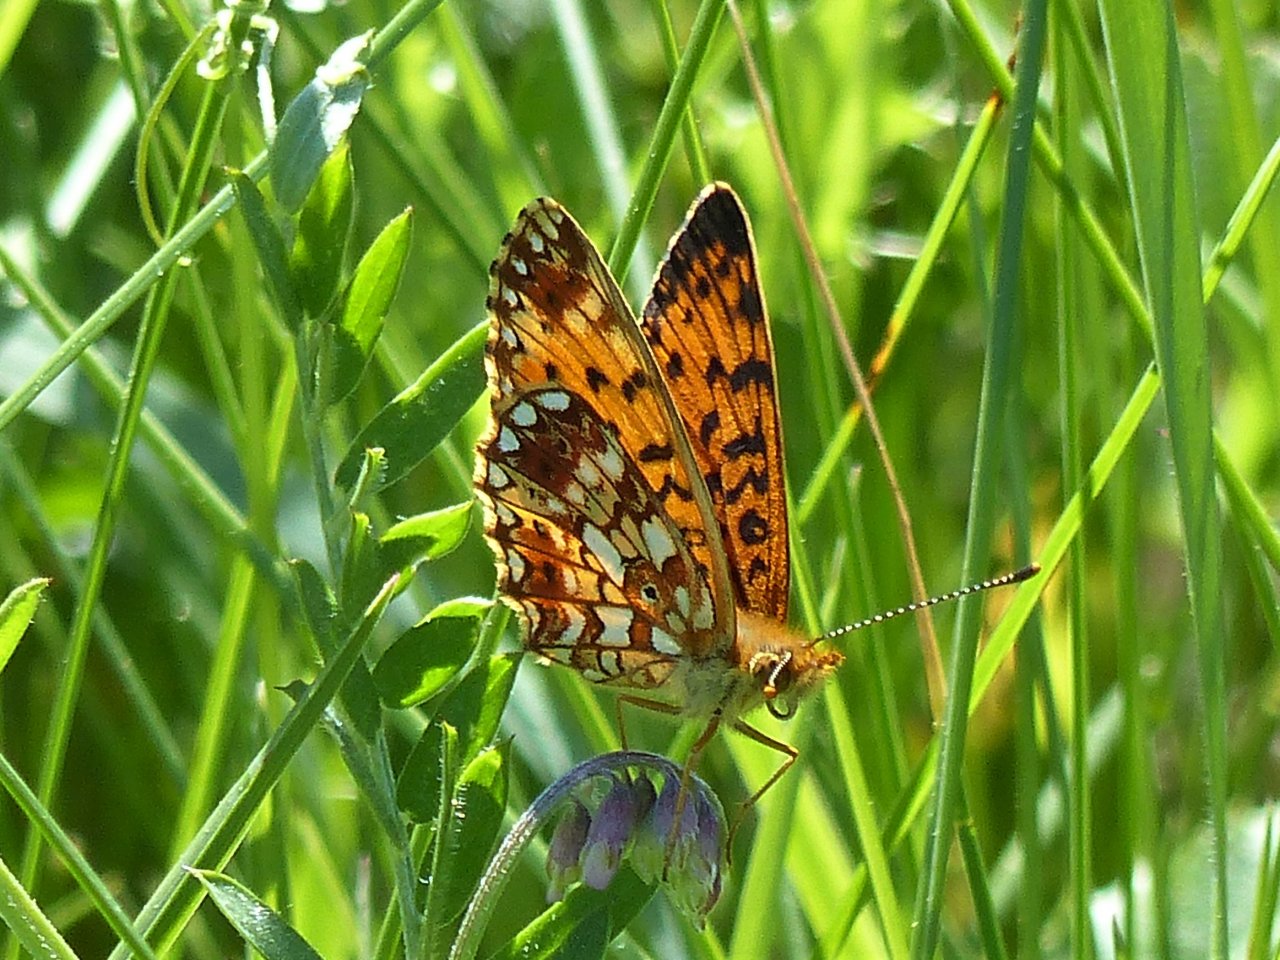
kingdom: Animalia
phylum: Arthropoda
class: Insecta
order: Lepidoptera
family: Nymphalidae
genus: Boloria
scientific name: Boloria selene
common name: Silver-bordered Fritillary
